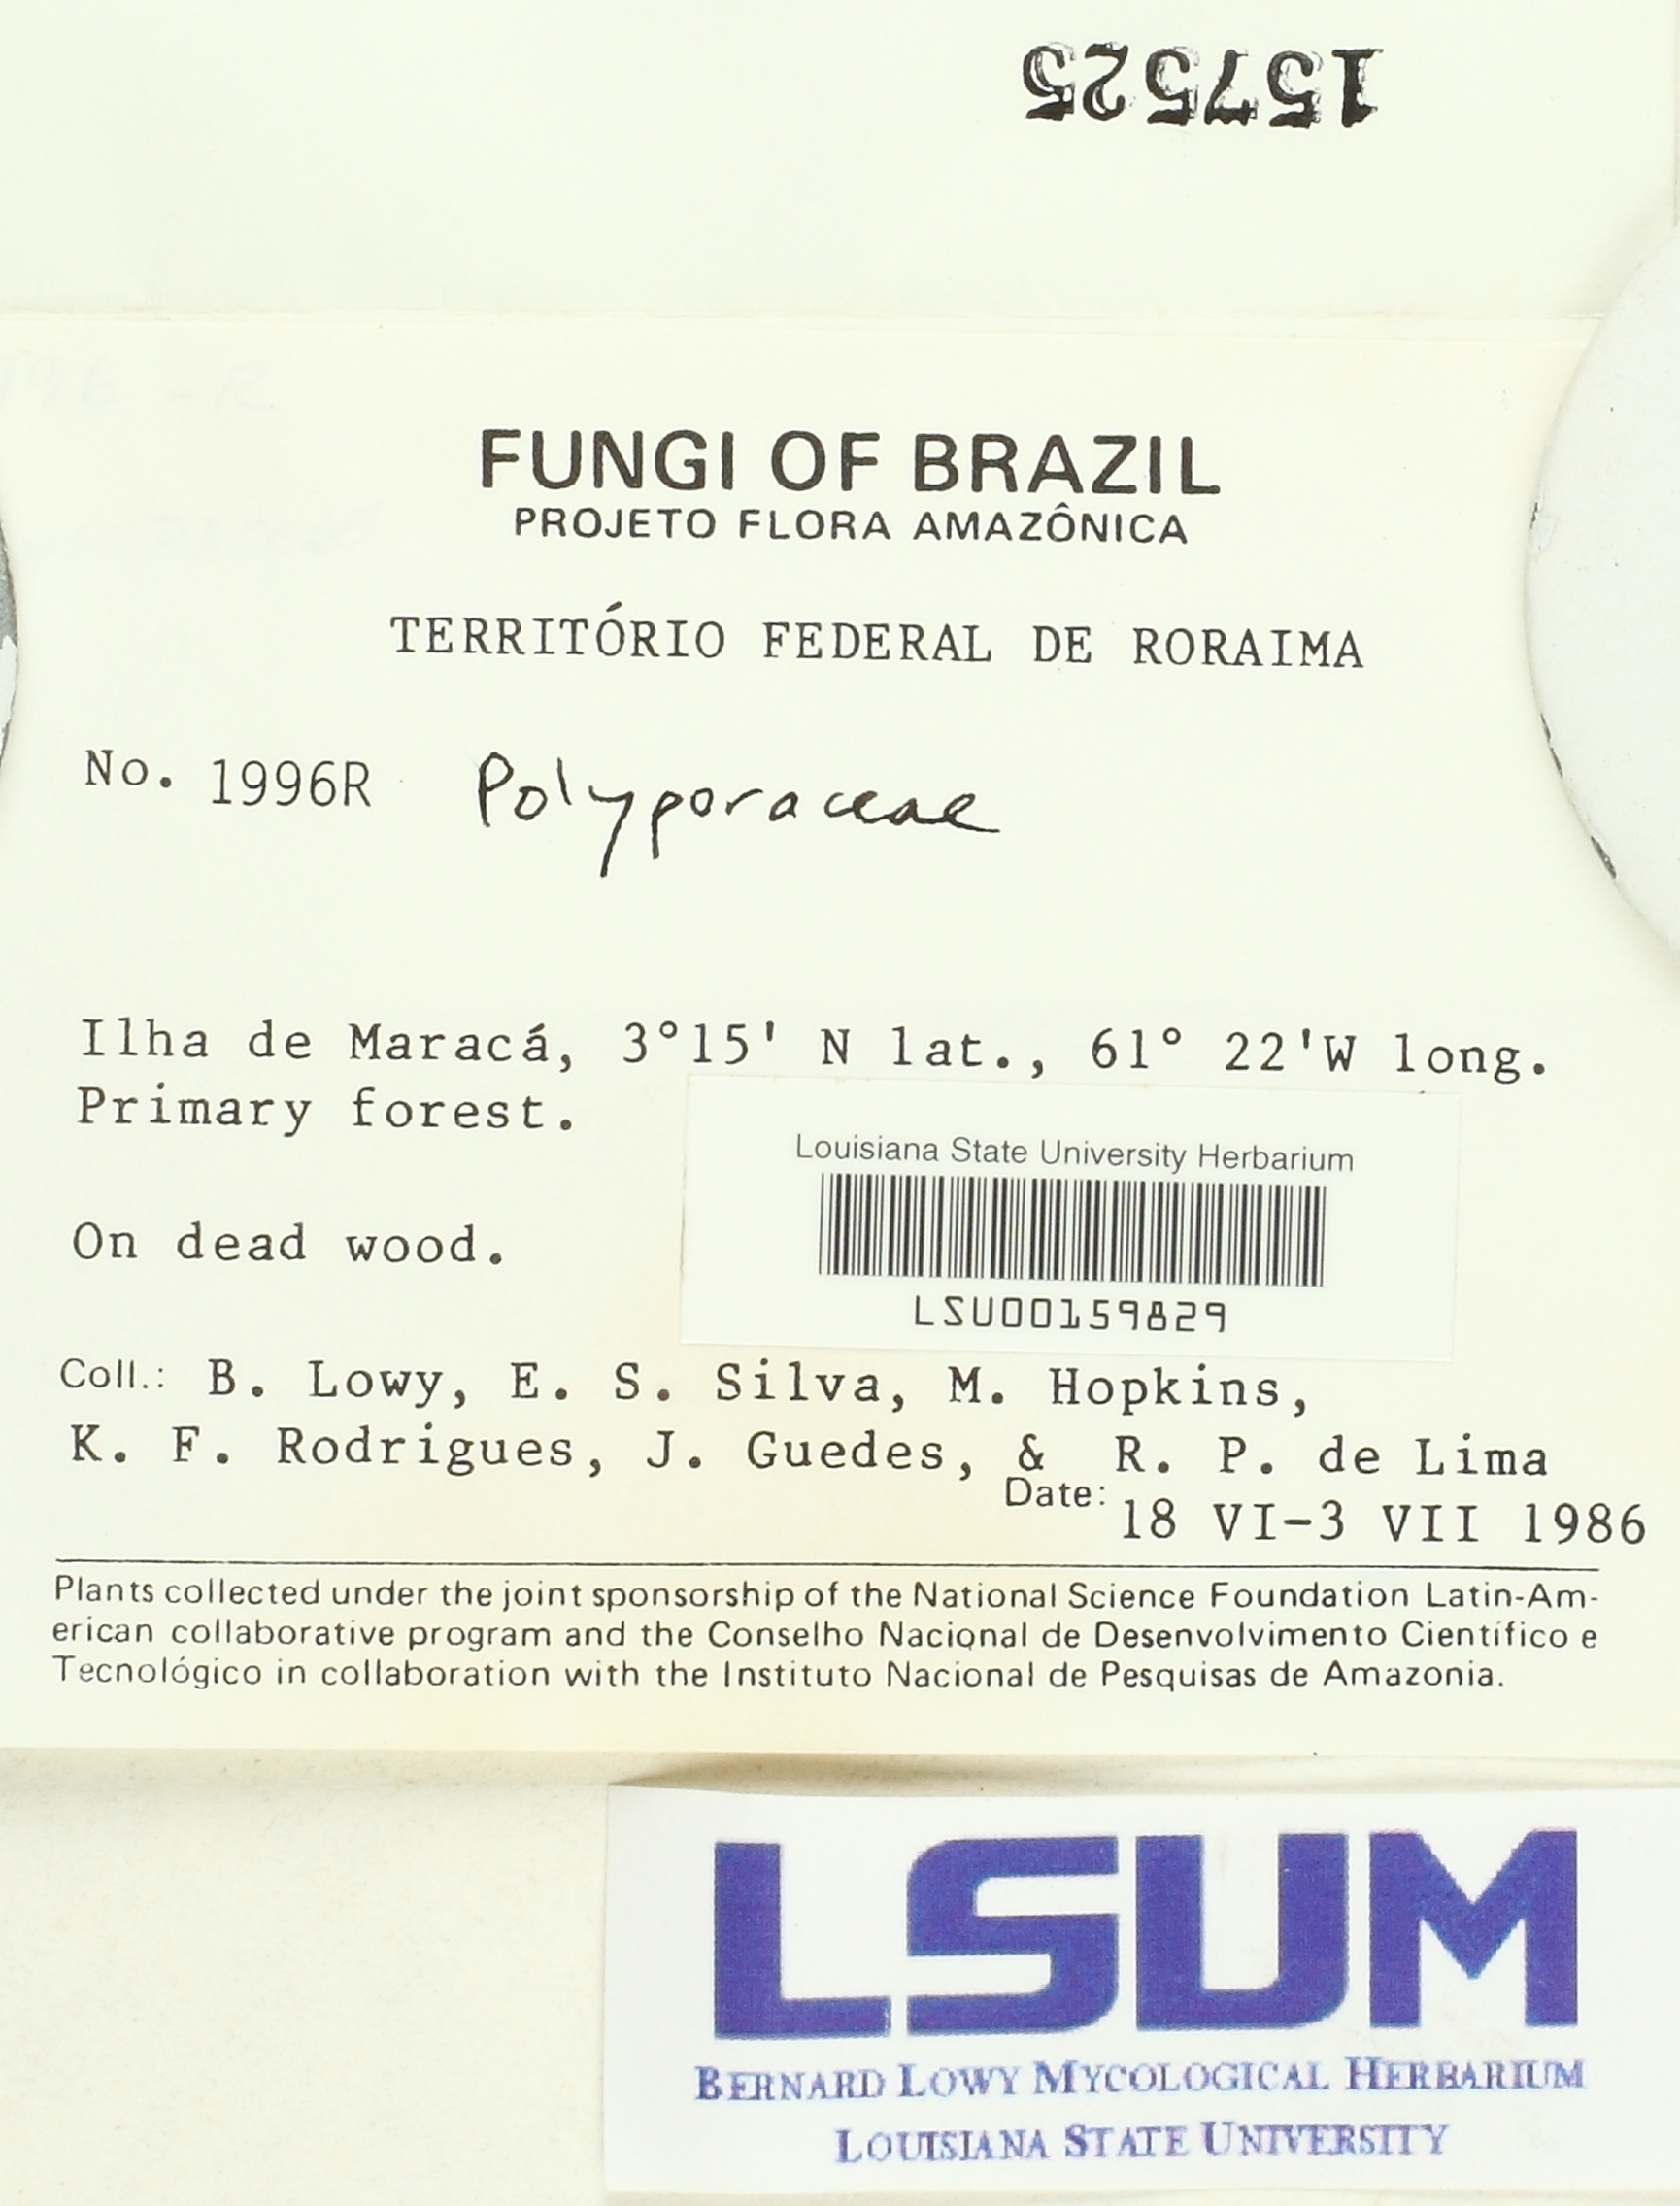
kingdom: Fungi
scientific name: Fungi
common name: Fungi
